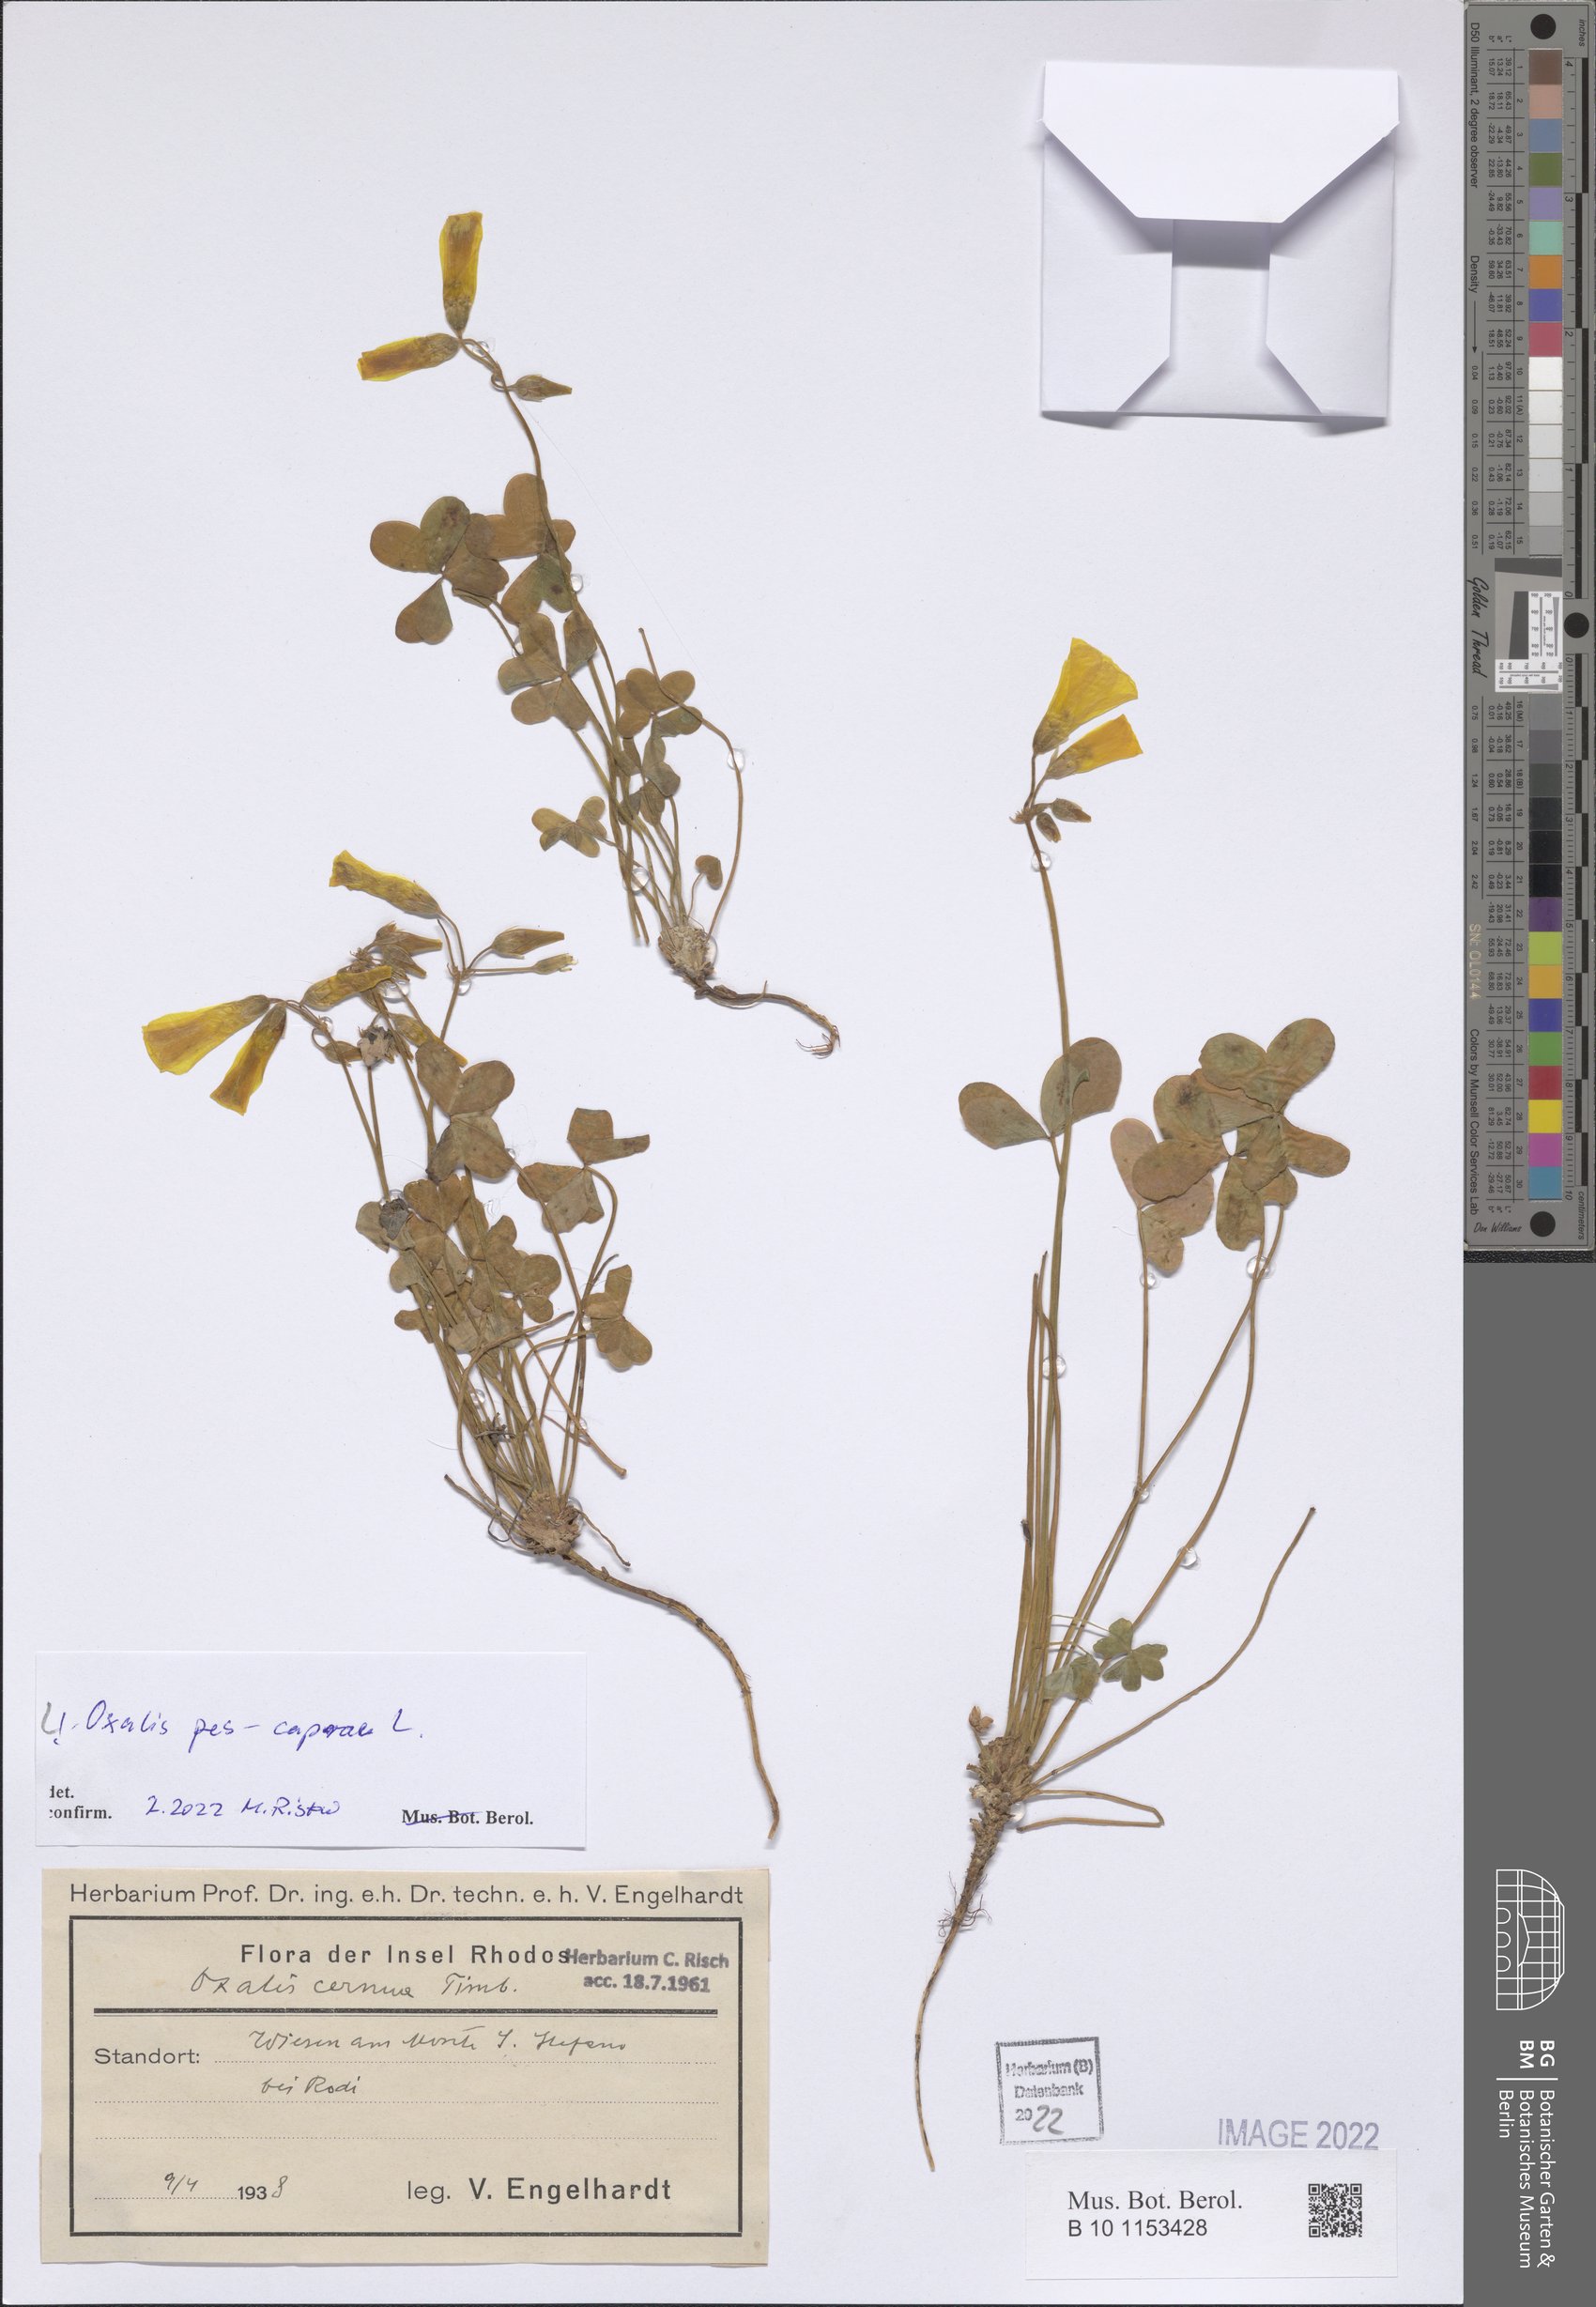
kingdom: Plantae
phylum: Tracheophyta
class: Magnoliopsida
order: Oxalidales
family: Oxalidaceae
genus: Oxalis
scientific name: Oxalis pes-caprae
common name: Bermuda-buttercup
